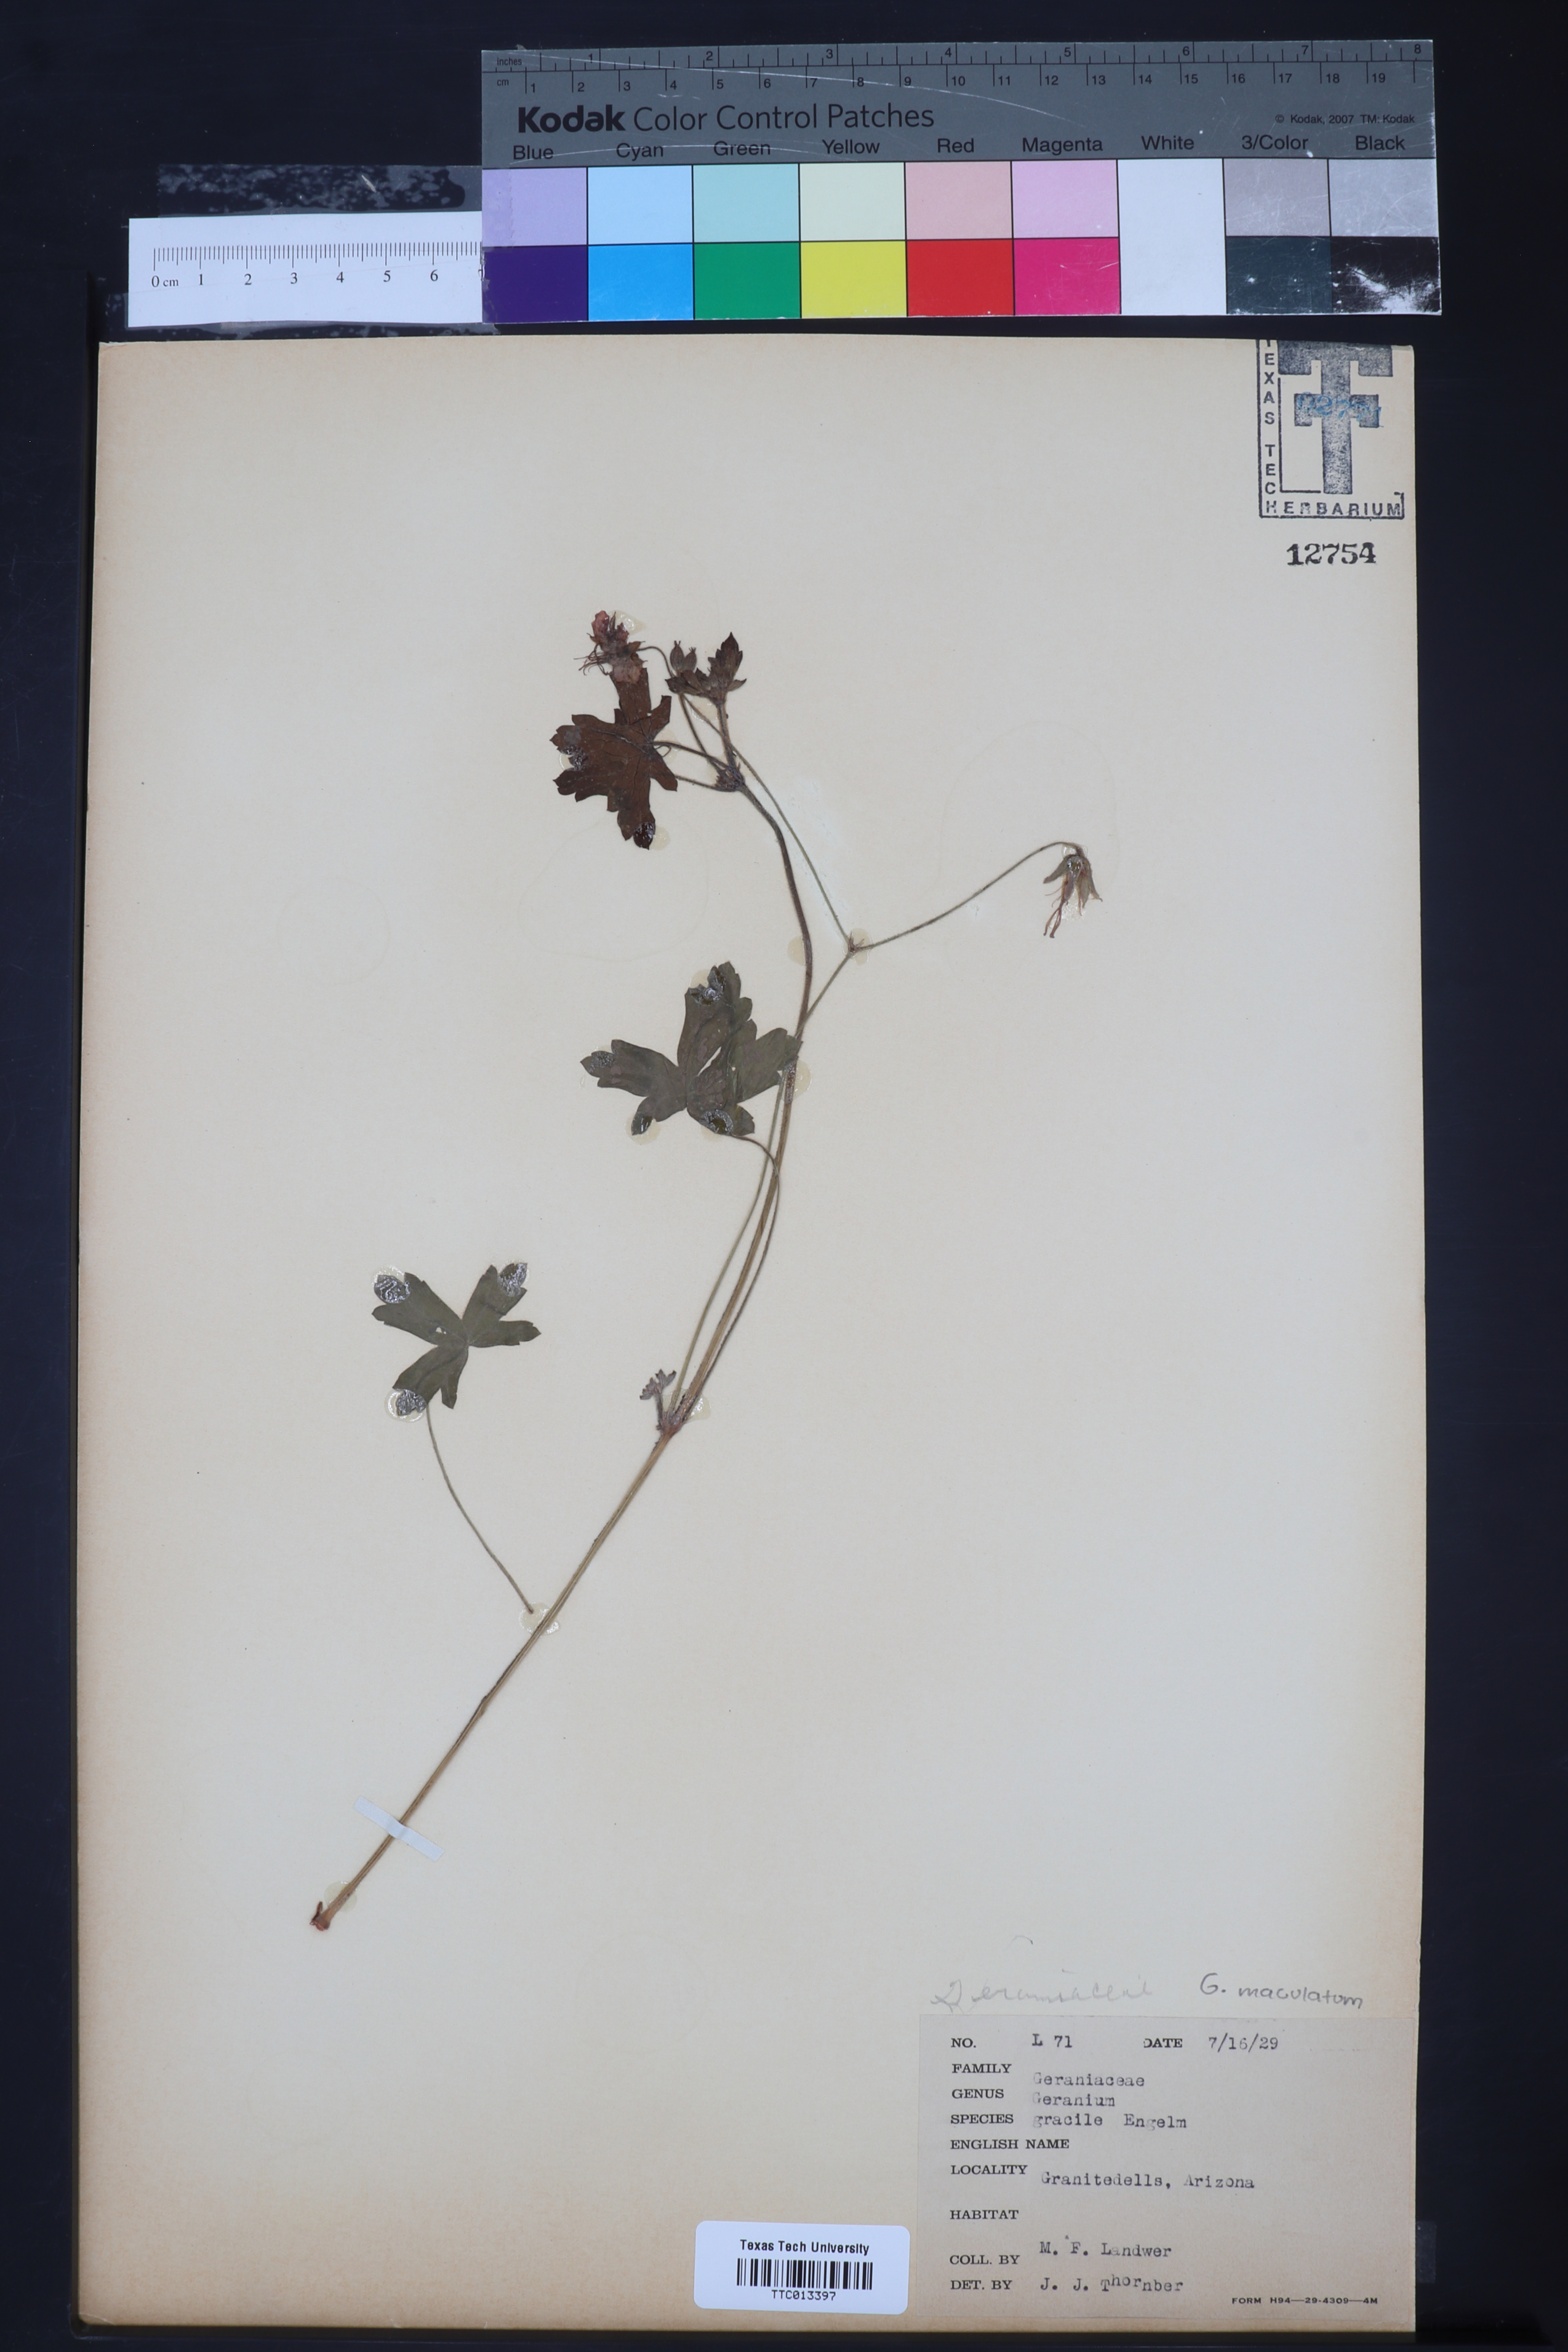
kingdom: Plantae
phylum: Tracheophyta
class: Magnoliopsida
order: Geraniales
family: Geraniaceae
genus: Geranium
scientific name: Geranium caespitosum
